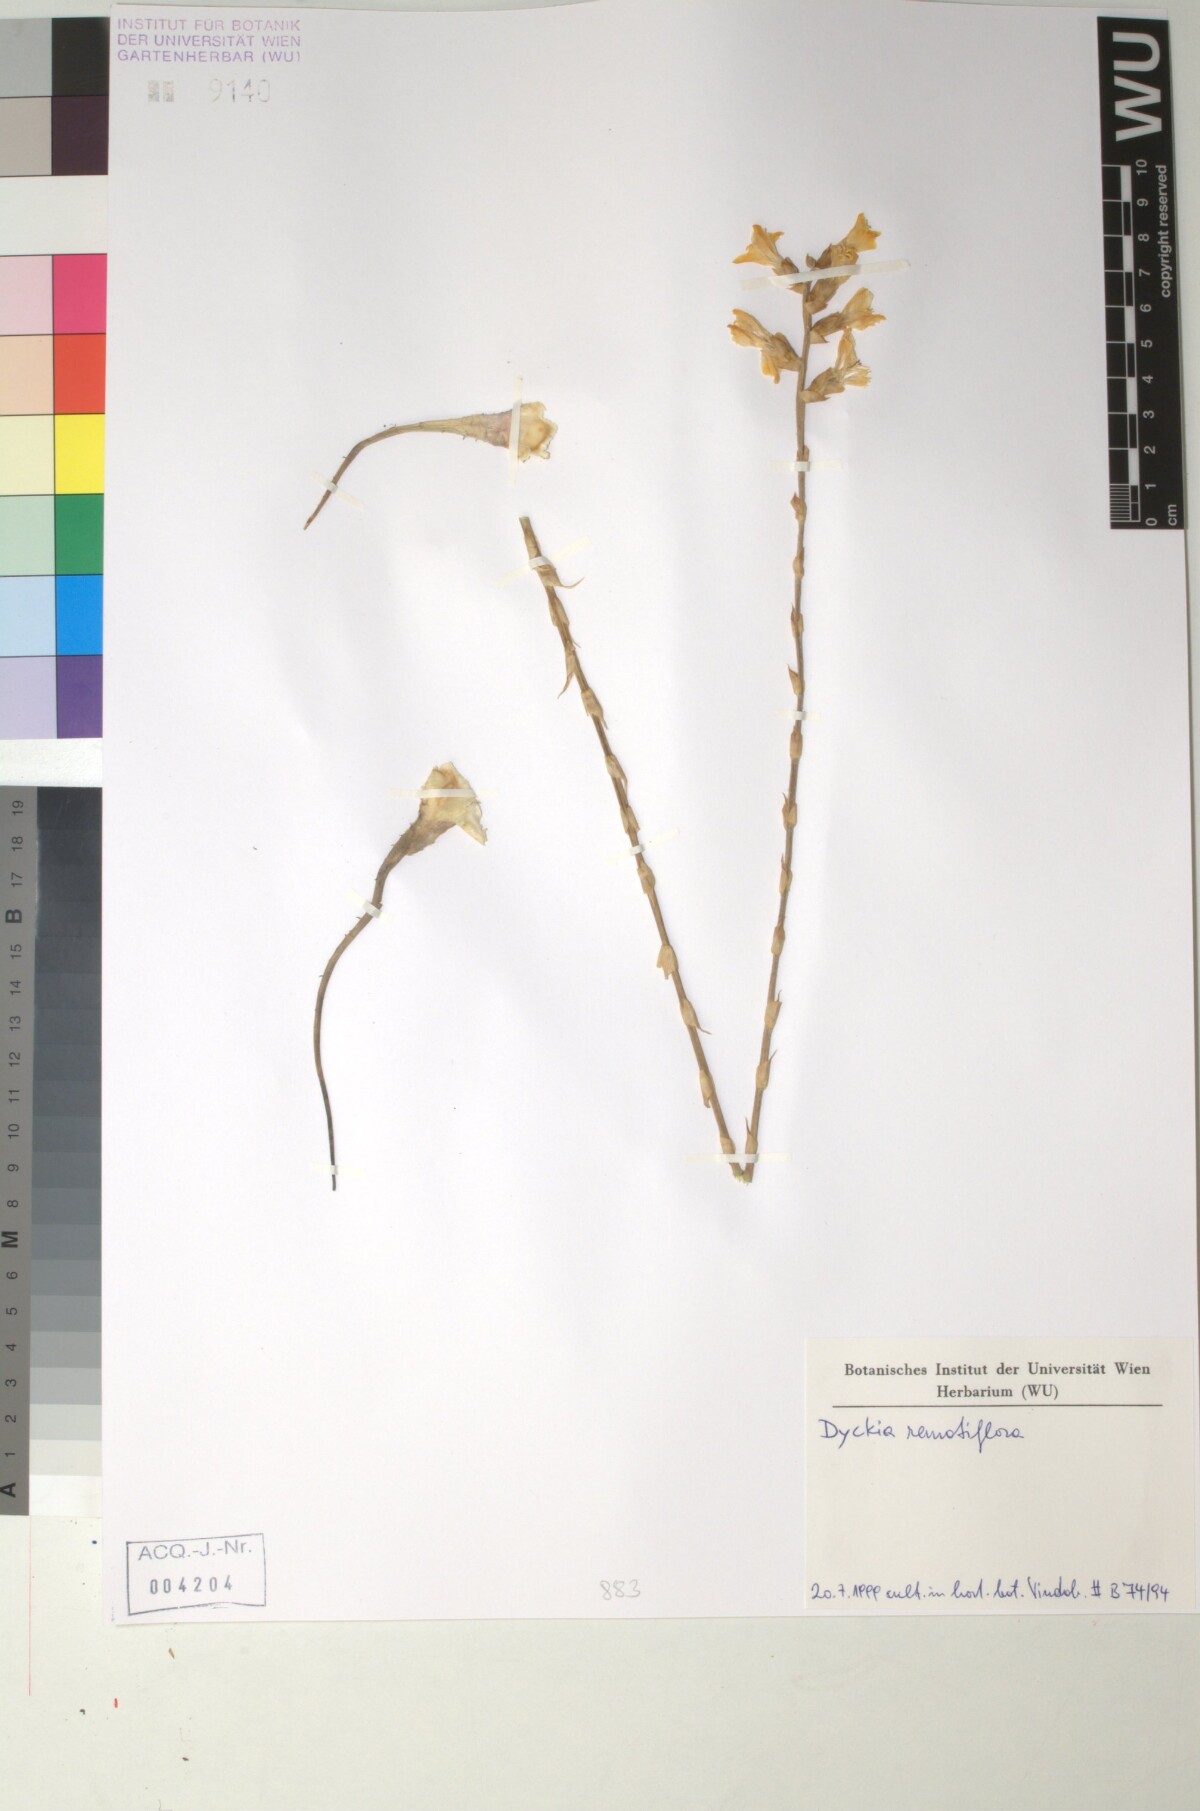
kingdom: Plantae
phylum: Tracheophyta
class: Liliopsida
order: Poales
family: Bromeliaceae
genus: Dyckia
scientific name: Dyckia remotiflora
